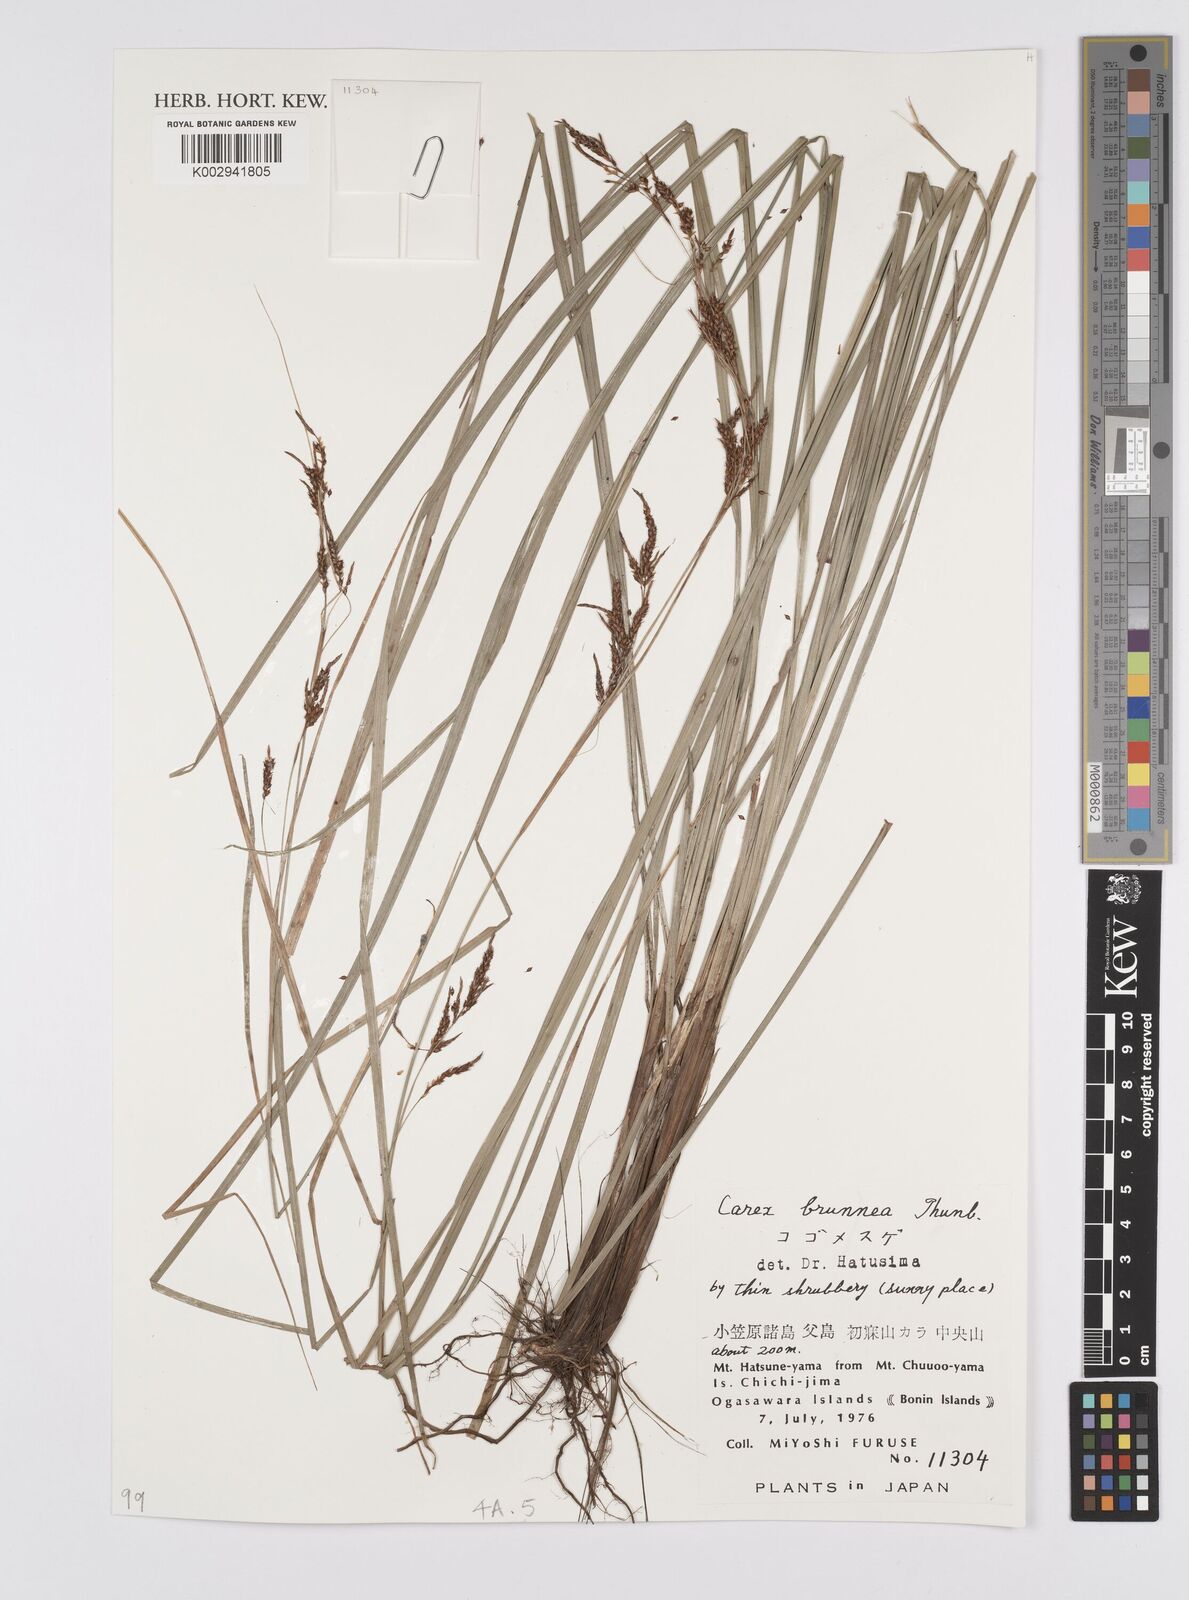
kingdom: Plantae
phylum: Tracheophyta
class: Liliopsida
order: Poales
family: Cyperaceae
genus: Carex
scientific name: Carex brunnea
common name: Greater brown sedge
